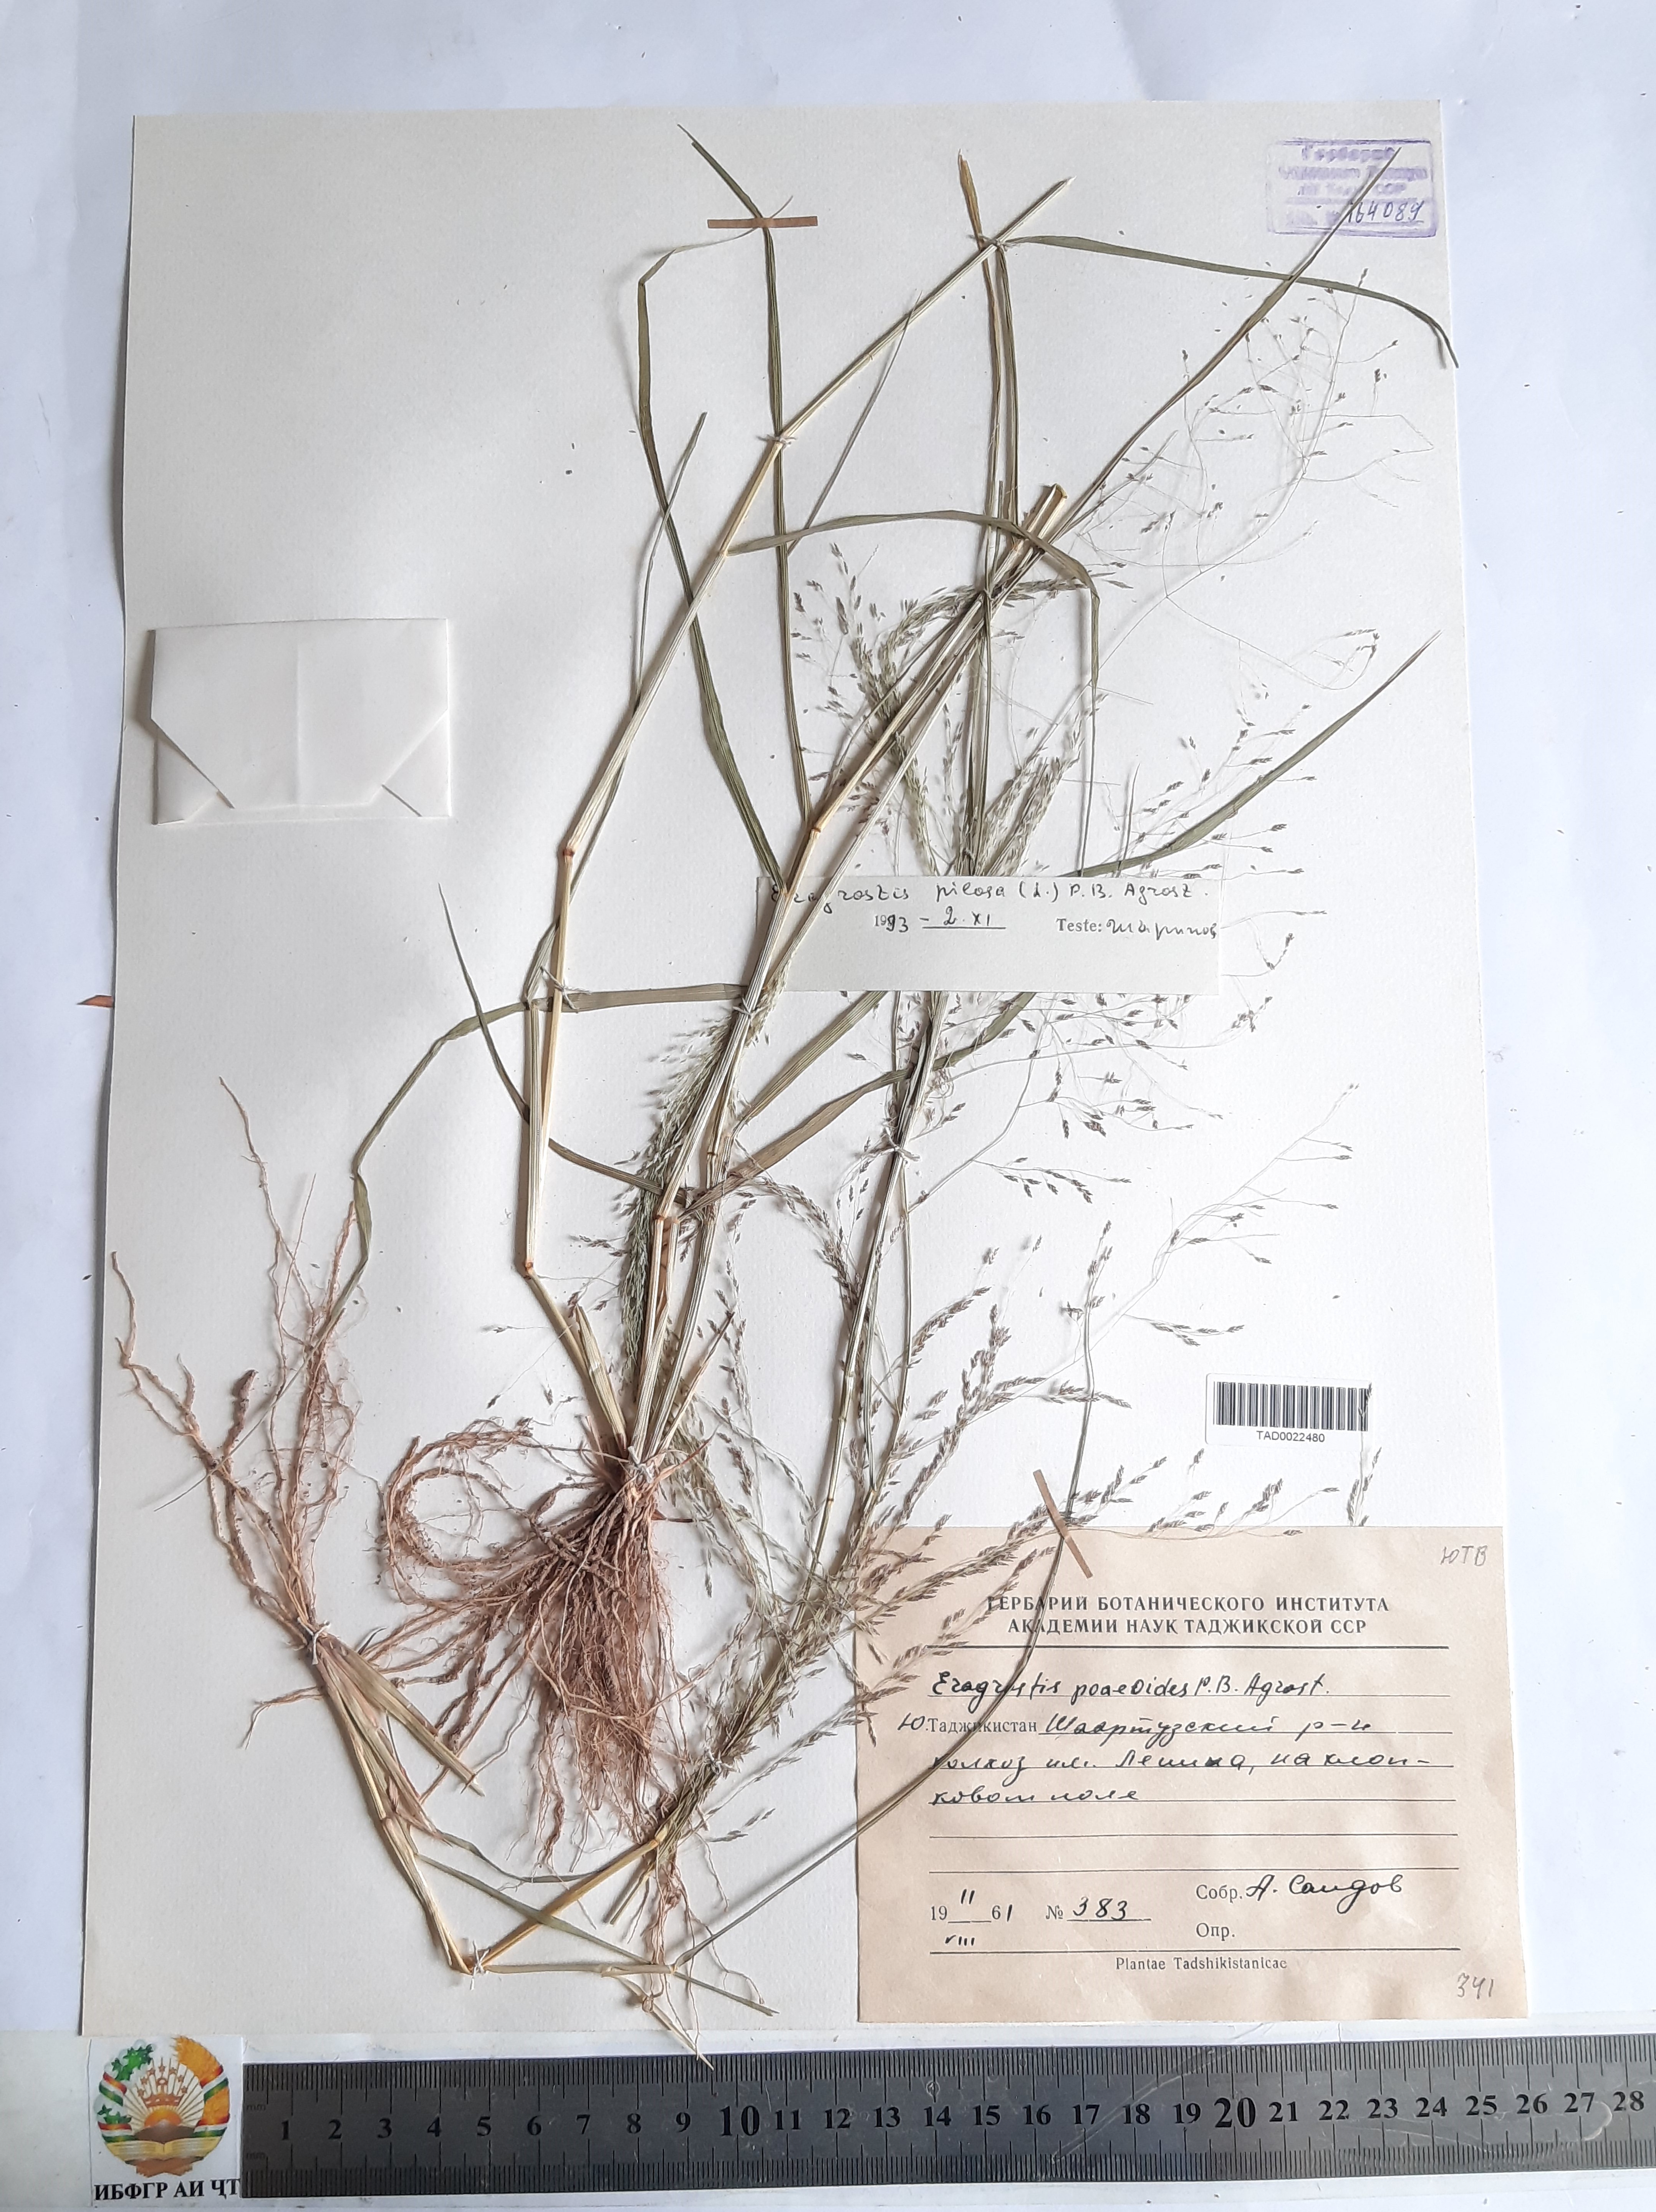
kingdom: Plantae
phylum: Tracheophyta
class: Liliopsida
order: Poales
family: Poaceae
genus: Eragrostis
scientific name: Eragrostis minor
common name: Small love-grass
